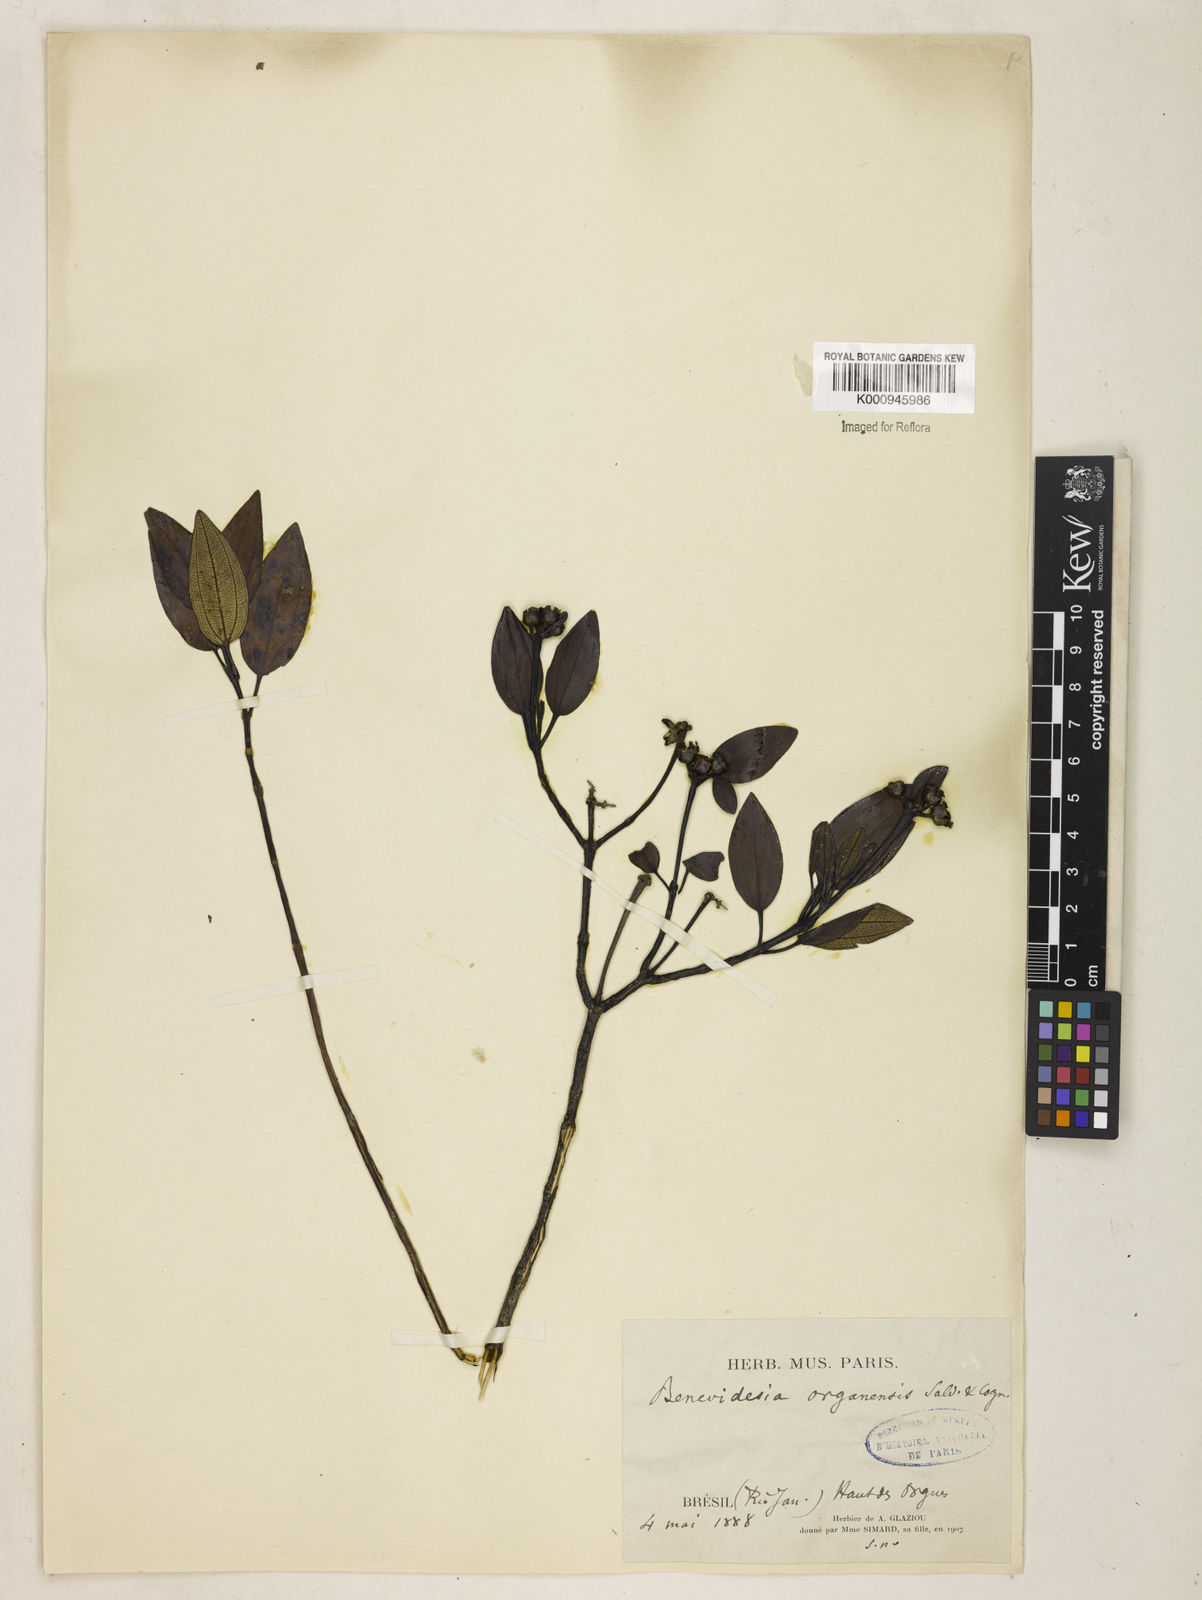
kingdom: Plantae
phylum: Tracheophyta
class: Magnoliopsida
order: Myrtales
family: Melastomataceae
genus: Huberia
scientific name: Huberia organensis
